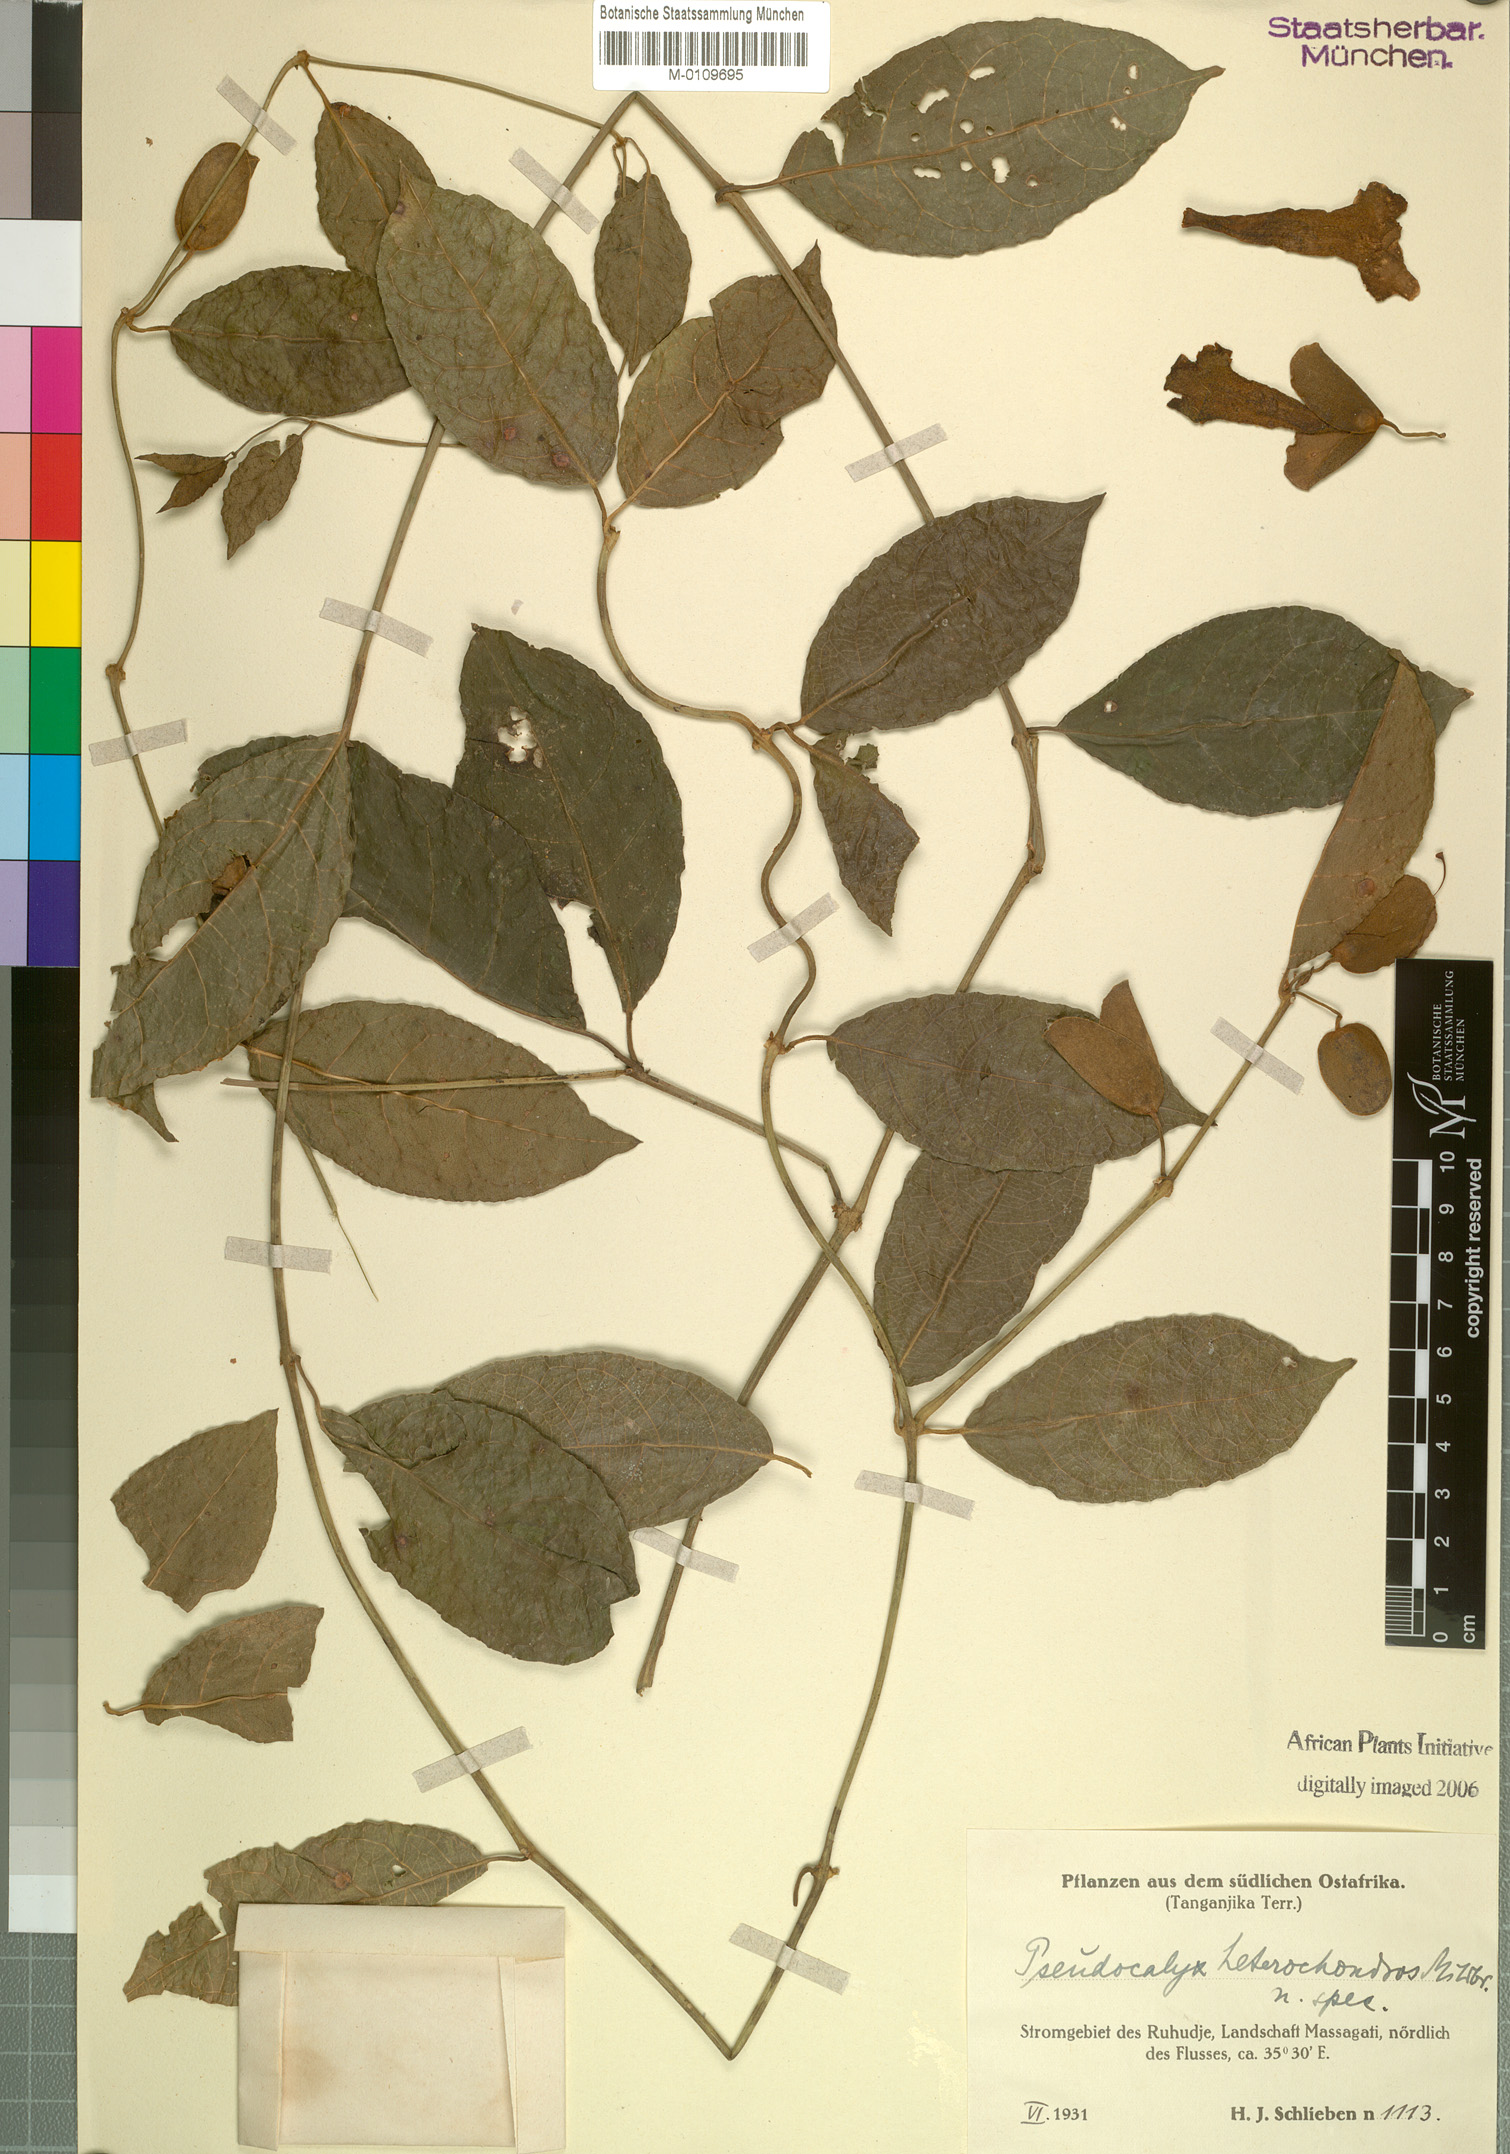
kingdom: Plantae
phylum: Tracheophyta
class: Magnoliopsida
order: Lamiales
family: Acanthaceae
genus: Thunbergia
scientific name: Thunbergia heterochondros
